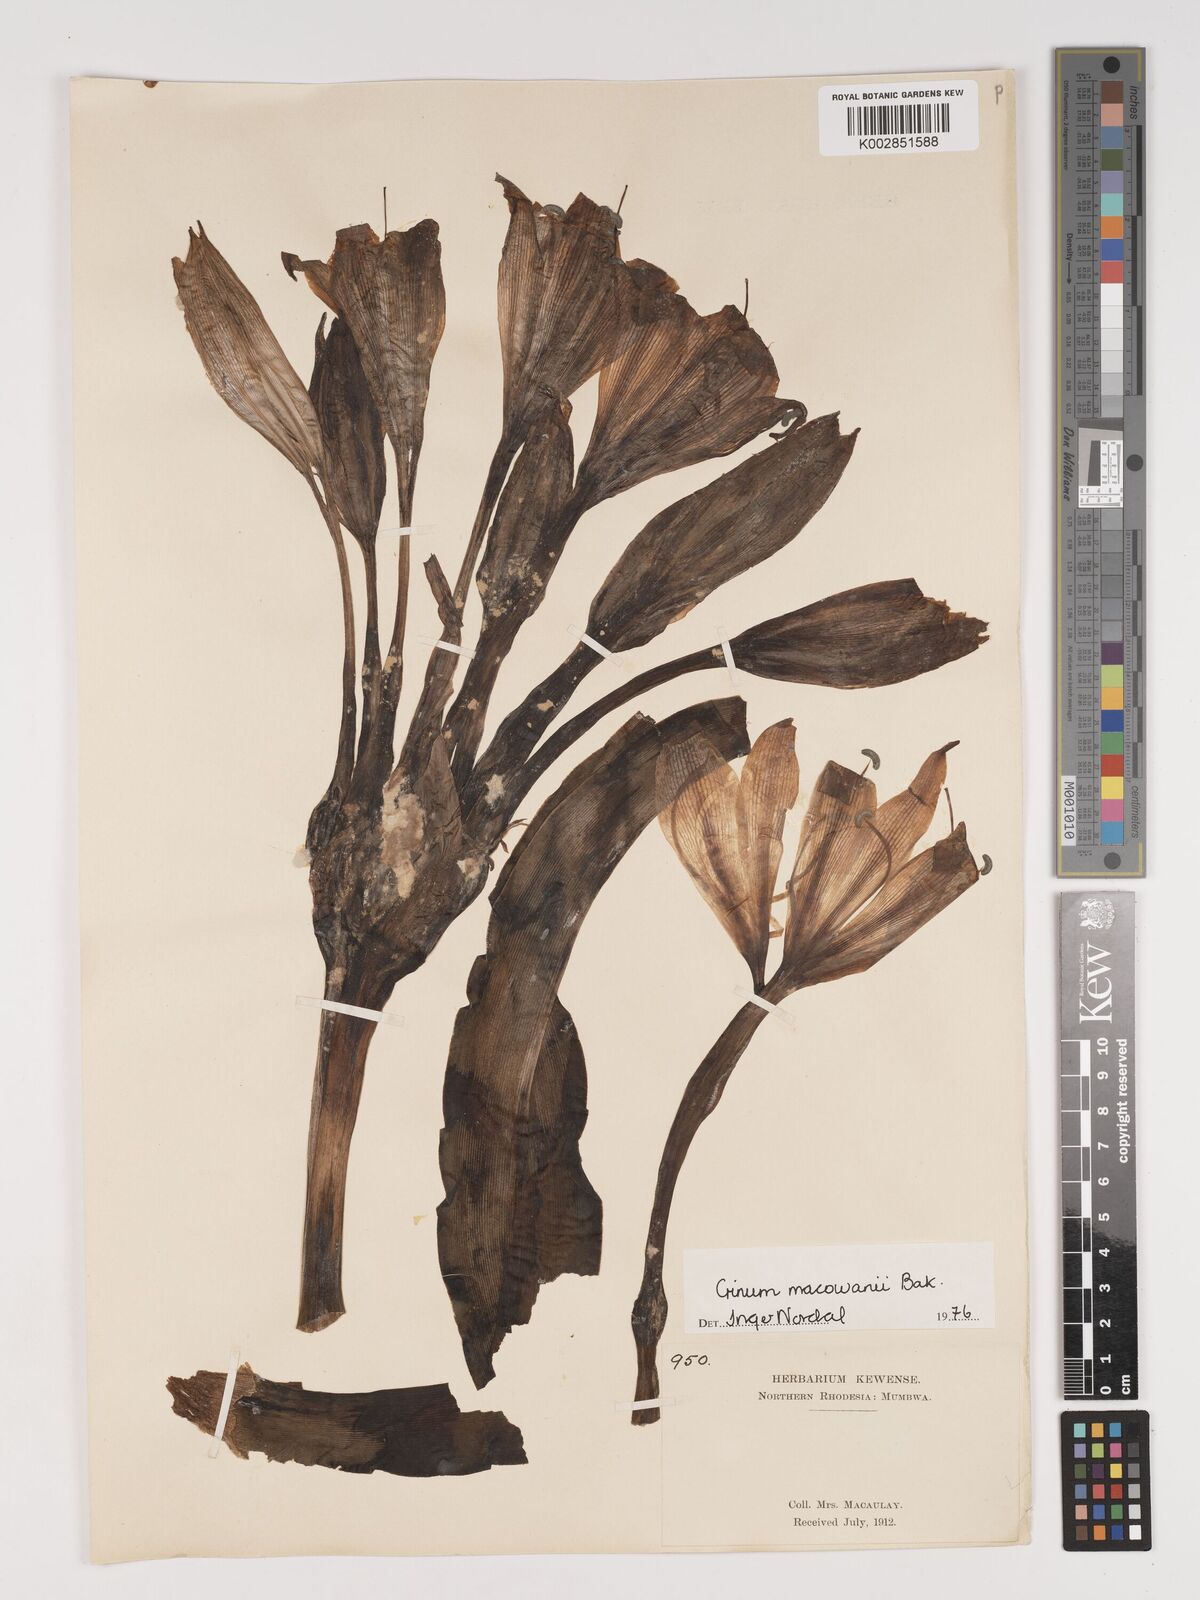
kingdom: Plantae
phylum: Tracheophyta
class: Liliopsida
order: Asparagales
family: Amaryllidaceae
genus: Crinum
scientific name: Crinum macowanii
